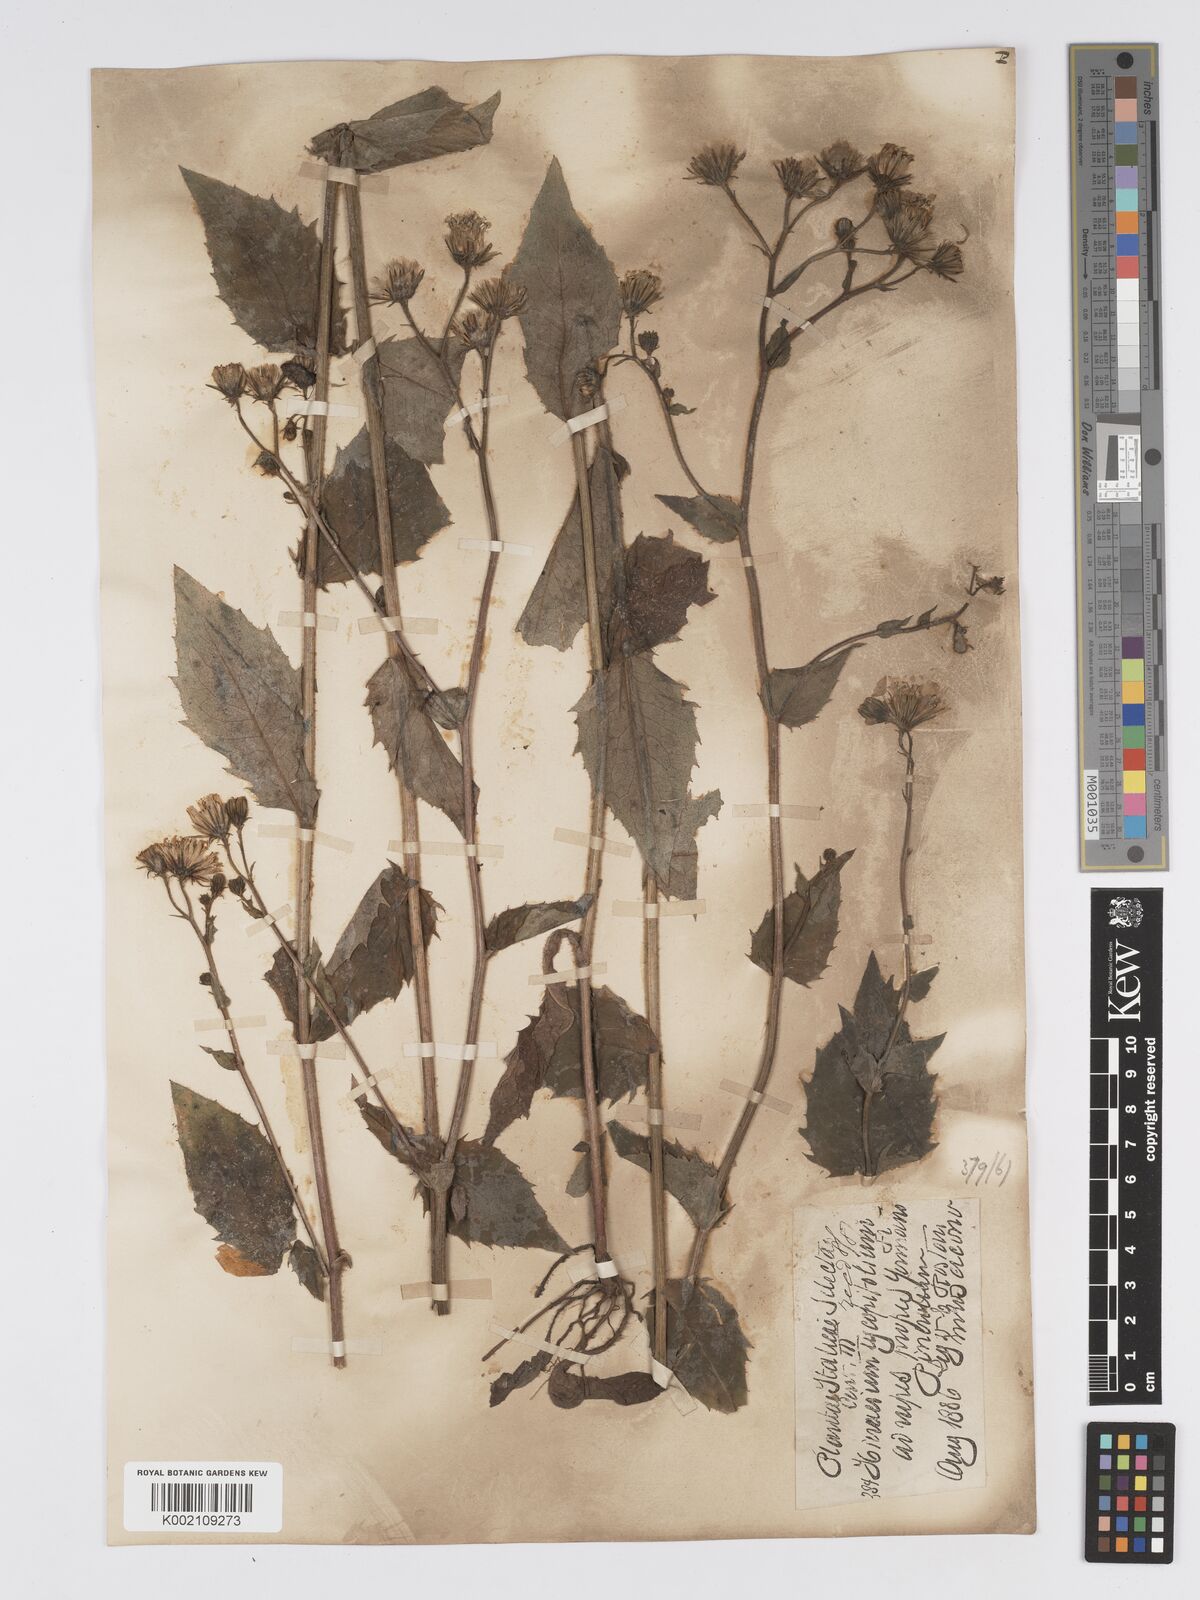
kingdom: Plantae
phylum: Tracheophyta
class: Magnoliopsida
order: Asterales
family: Asteraceae
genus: Hieracium
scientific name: Hieracium lycopifolium
